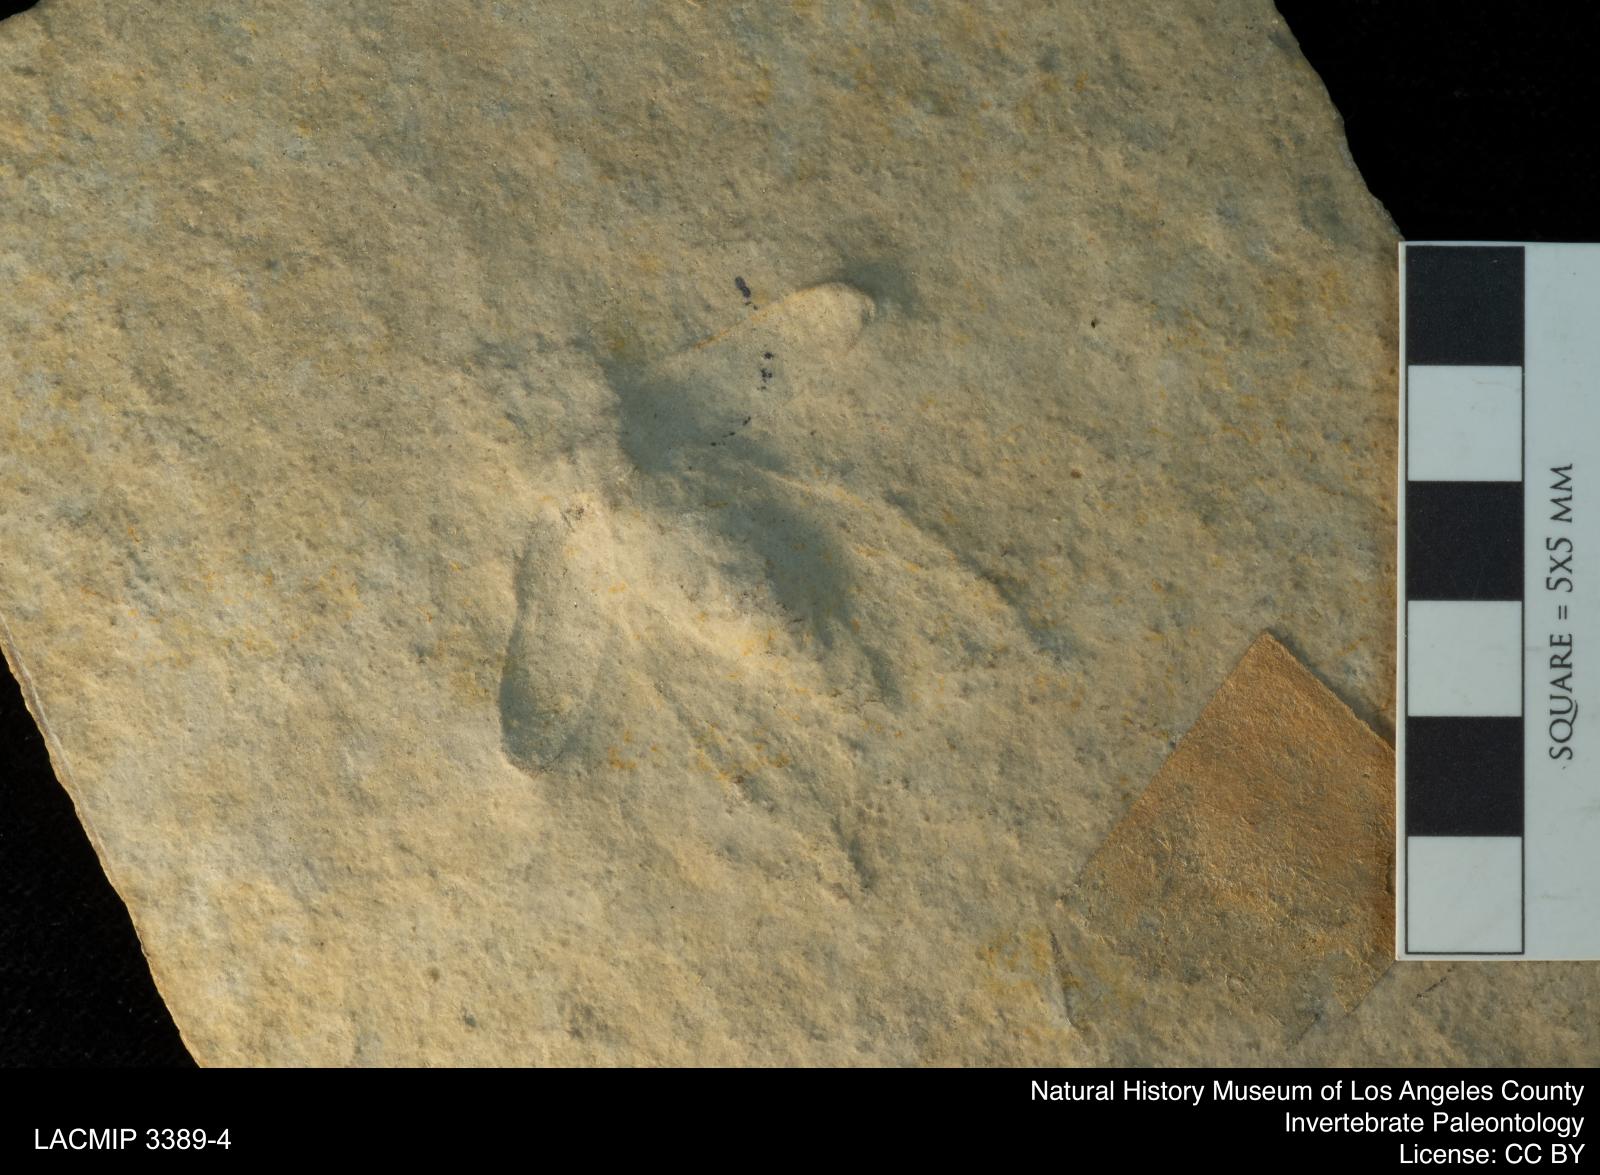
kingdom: Animalia
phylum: Arthropoda
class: Insecta
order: Coleoptera
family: Coptoclavidae
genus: Ditomoptera
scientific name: Ditomoptera dubia
